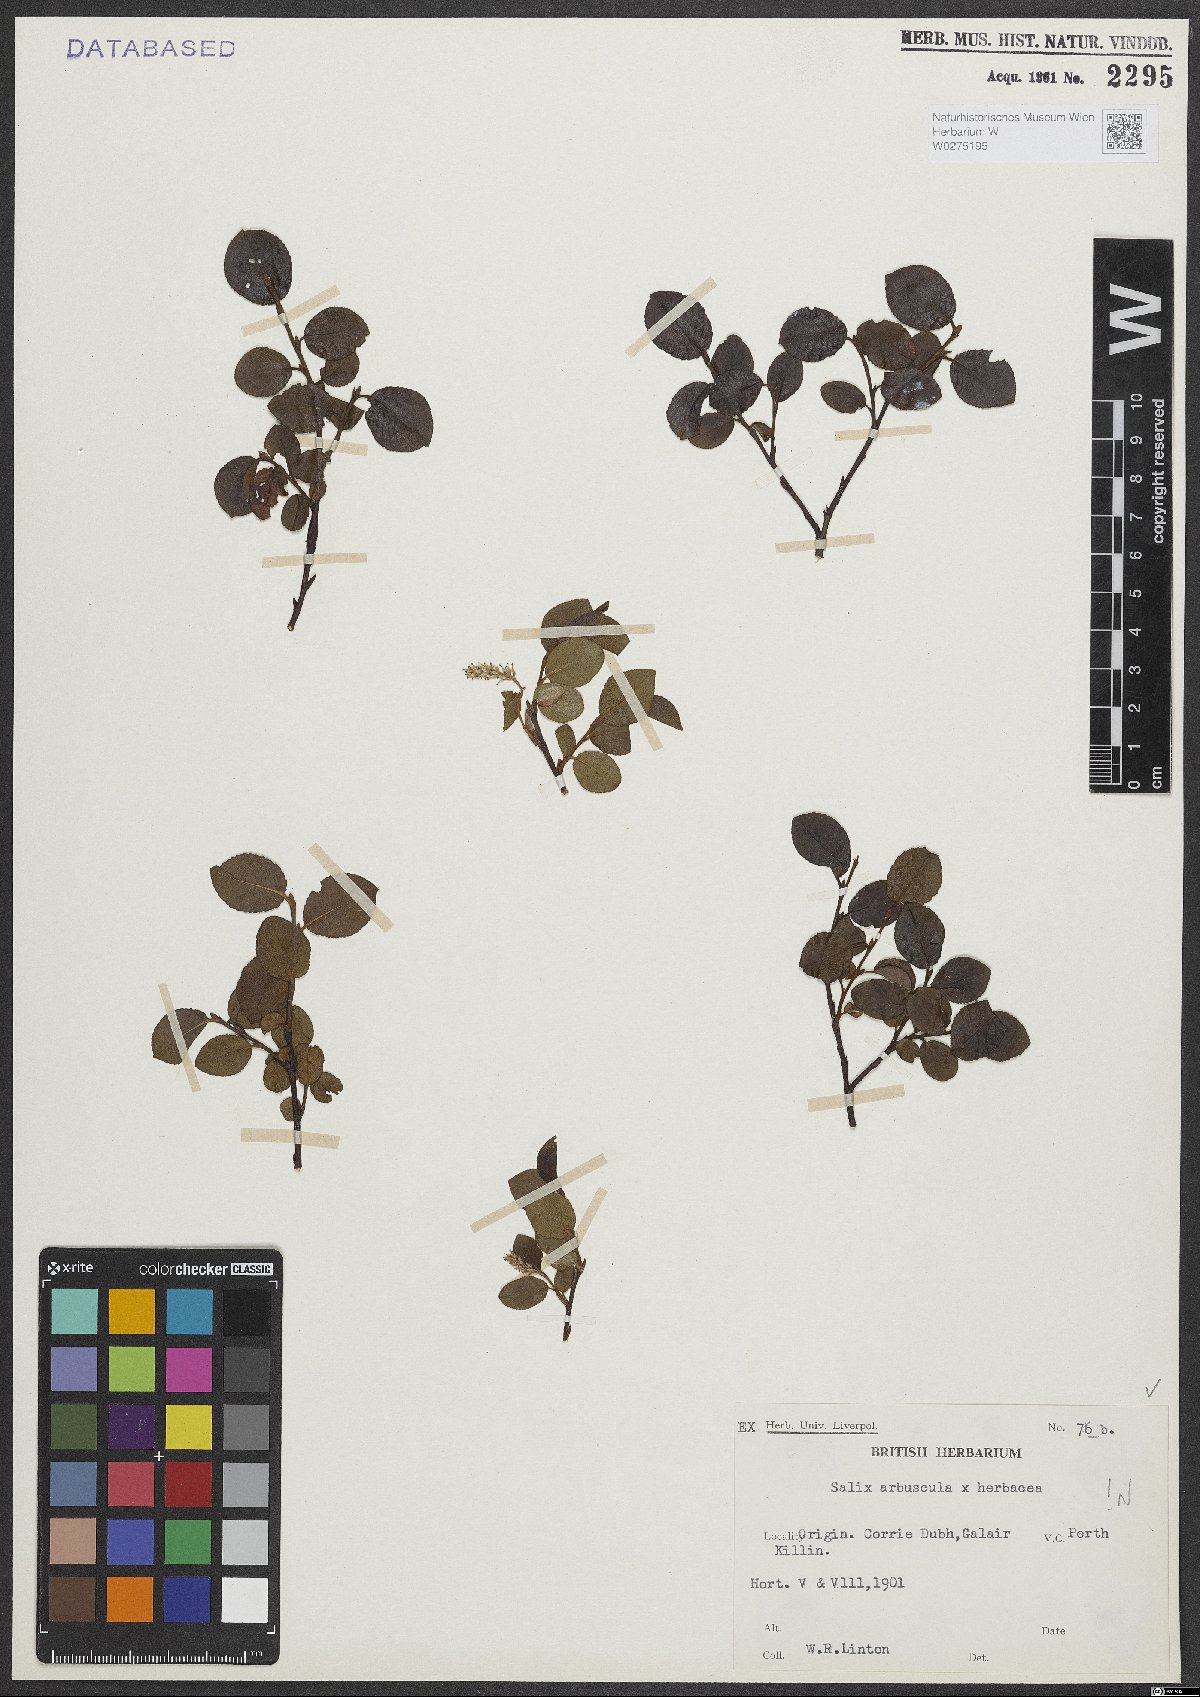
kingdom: Plantae
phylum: Tracheophyta
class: Magnoliopsida
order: Malpighiales
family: Salicaceae
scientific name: Salicaceae
